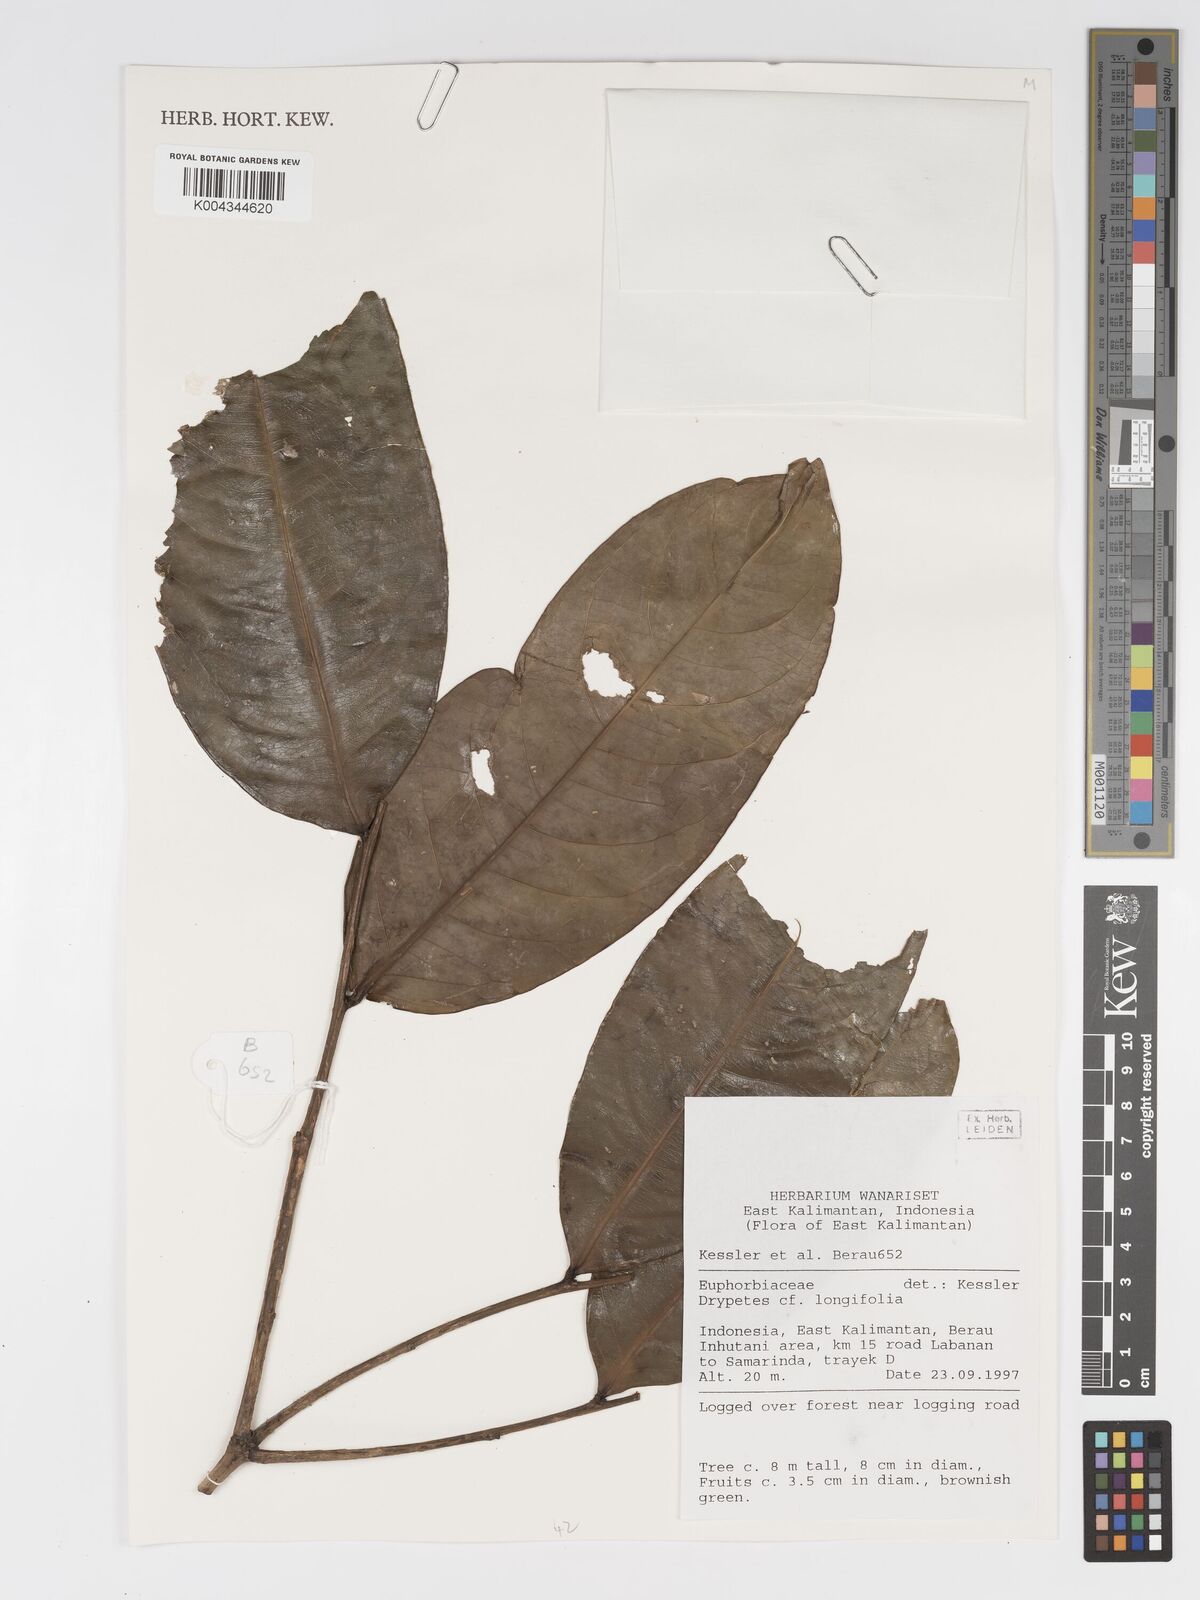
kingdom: Plantae
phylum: Tracheophyta
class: Magnoliopsida
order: Malpighiales
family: Putranjivaceae
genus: Drypetes
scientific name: Drypetes longifolia
